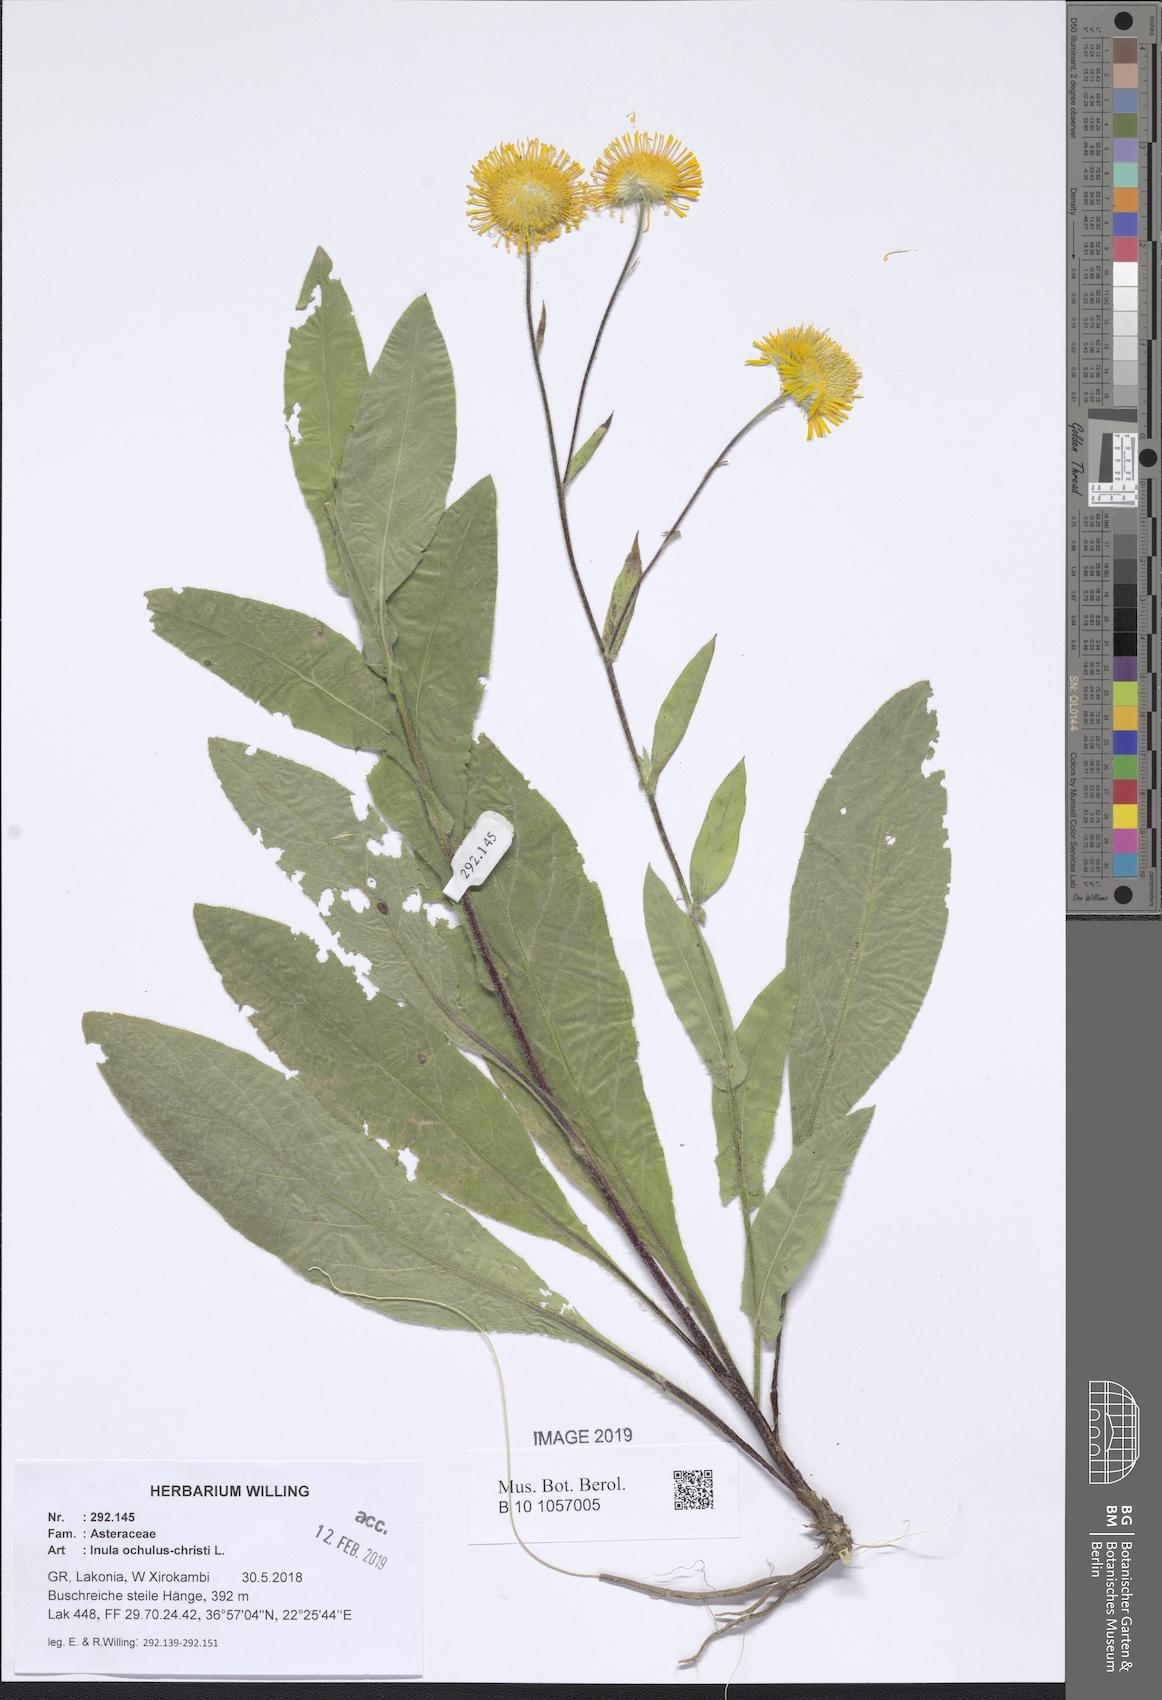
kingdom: Plantae
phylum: Tracheophyta
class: Magnoliopsida
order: Asterales
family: Asteraceae
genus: Pentanema
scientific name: Pentanema oculus-christi
